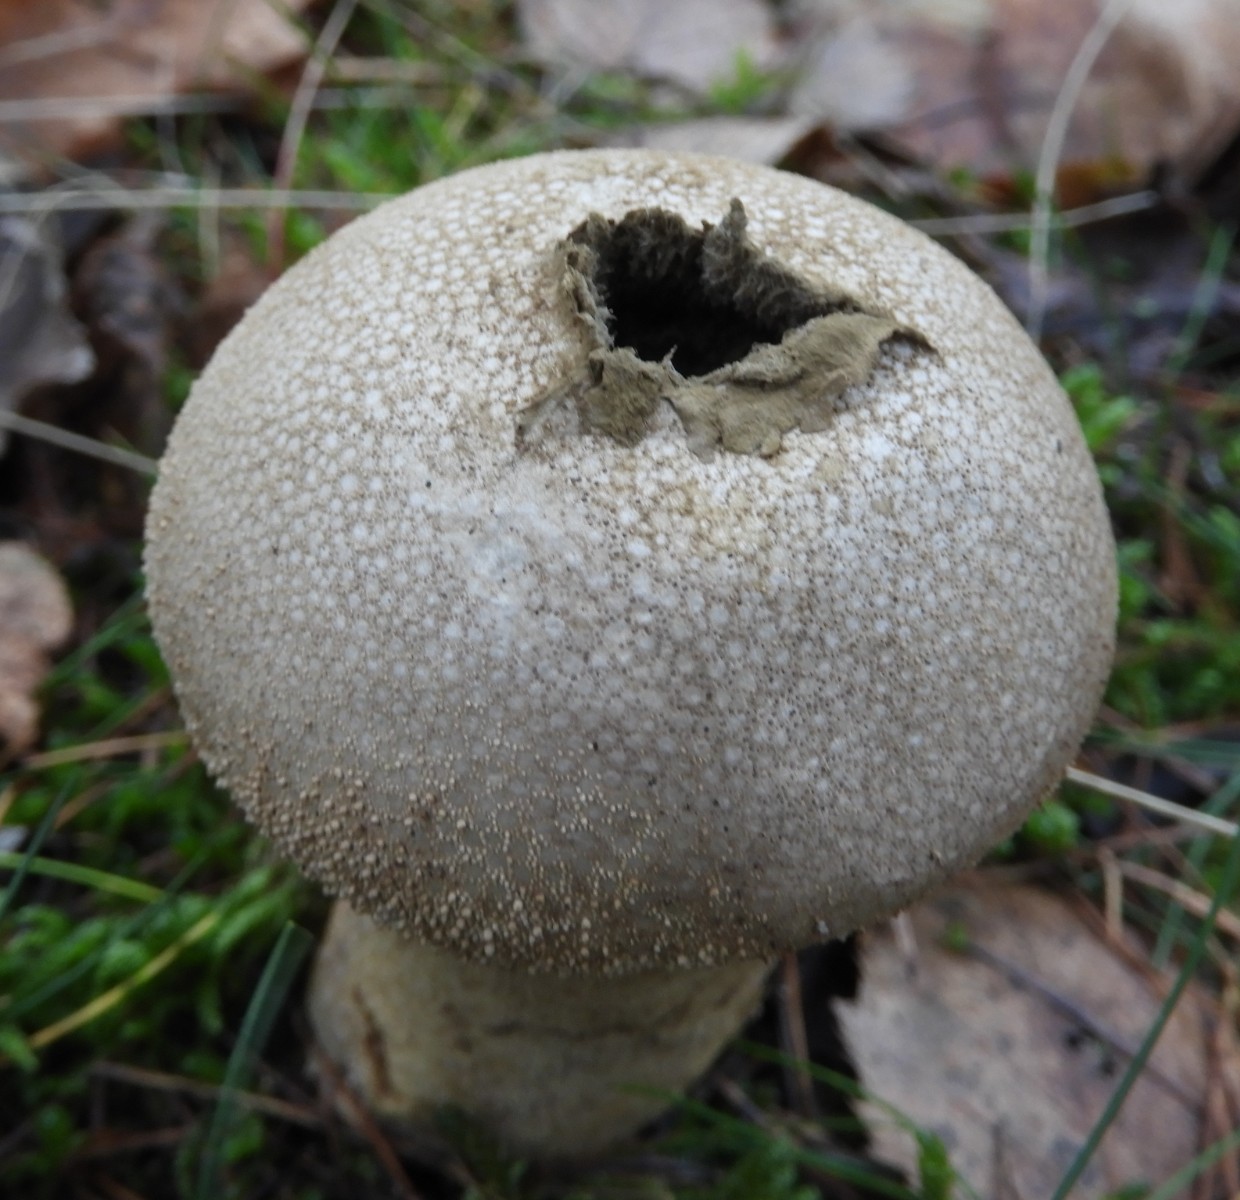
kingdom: Fungi
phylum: Basidiomycota
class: Agaricomycetes
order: Agaricales
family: Lycoperdaceae
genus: Lycoperdon
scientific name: Lycoperdon perlatum
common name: krystal-støvbold
